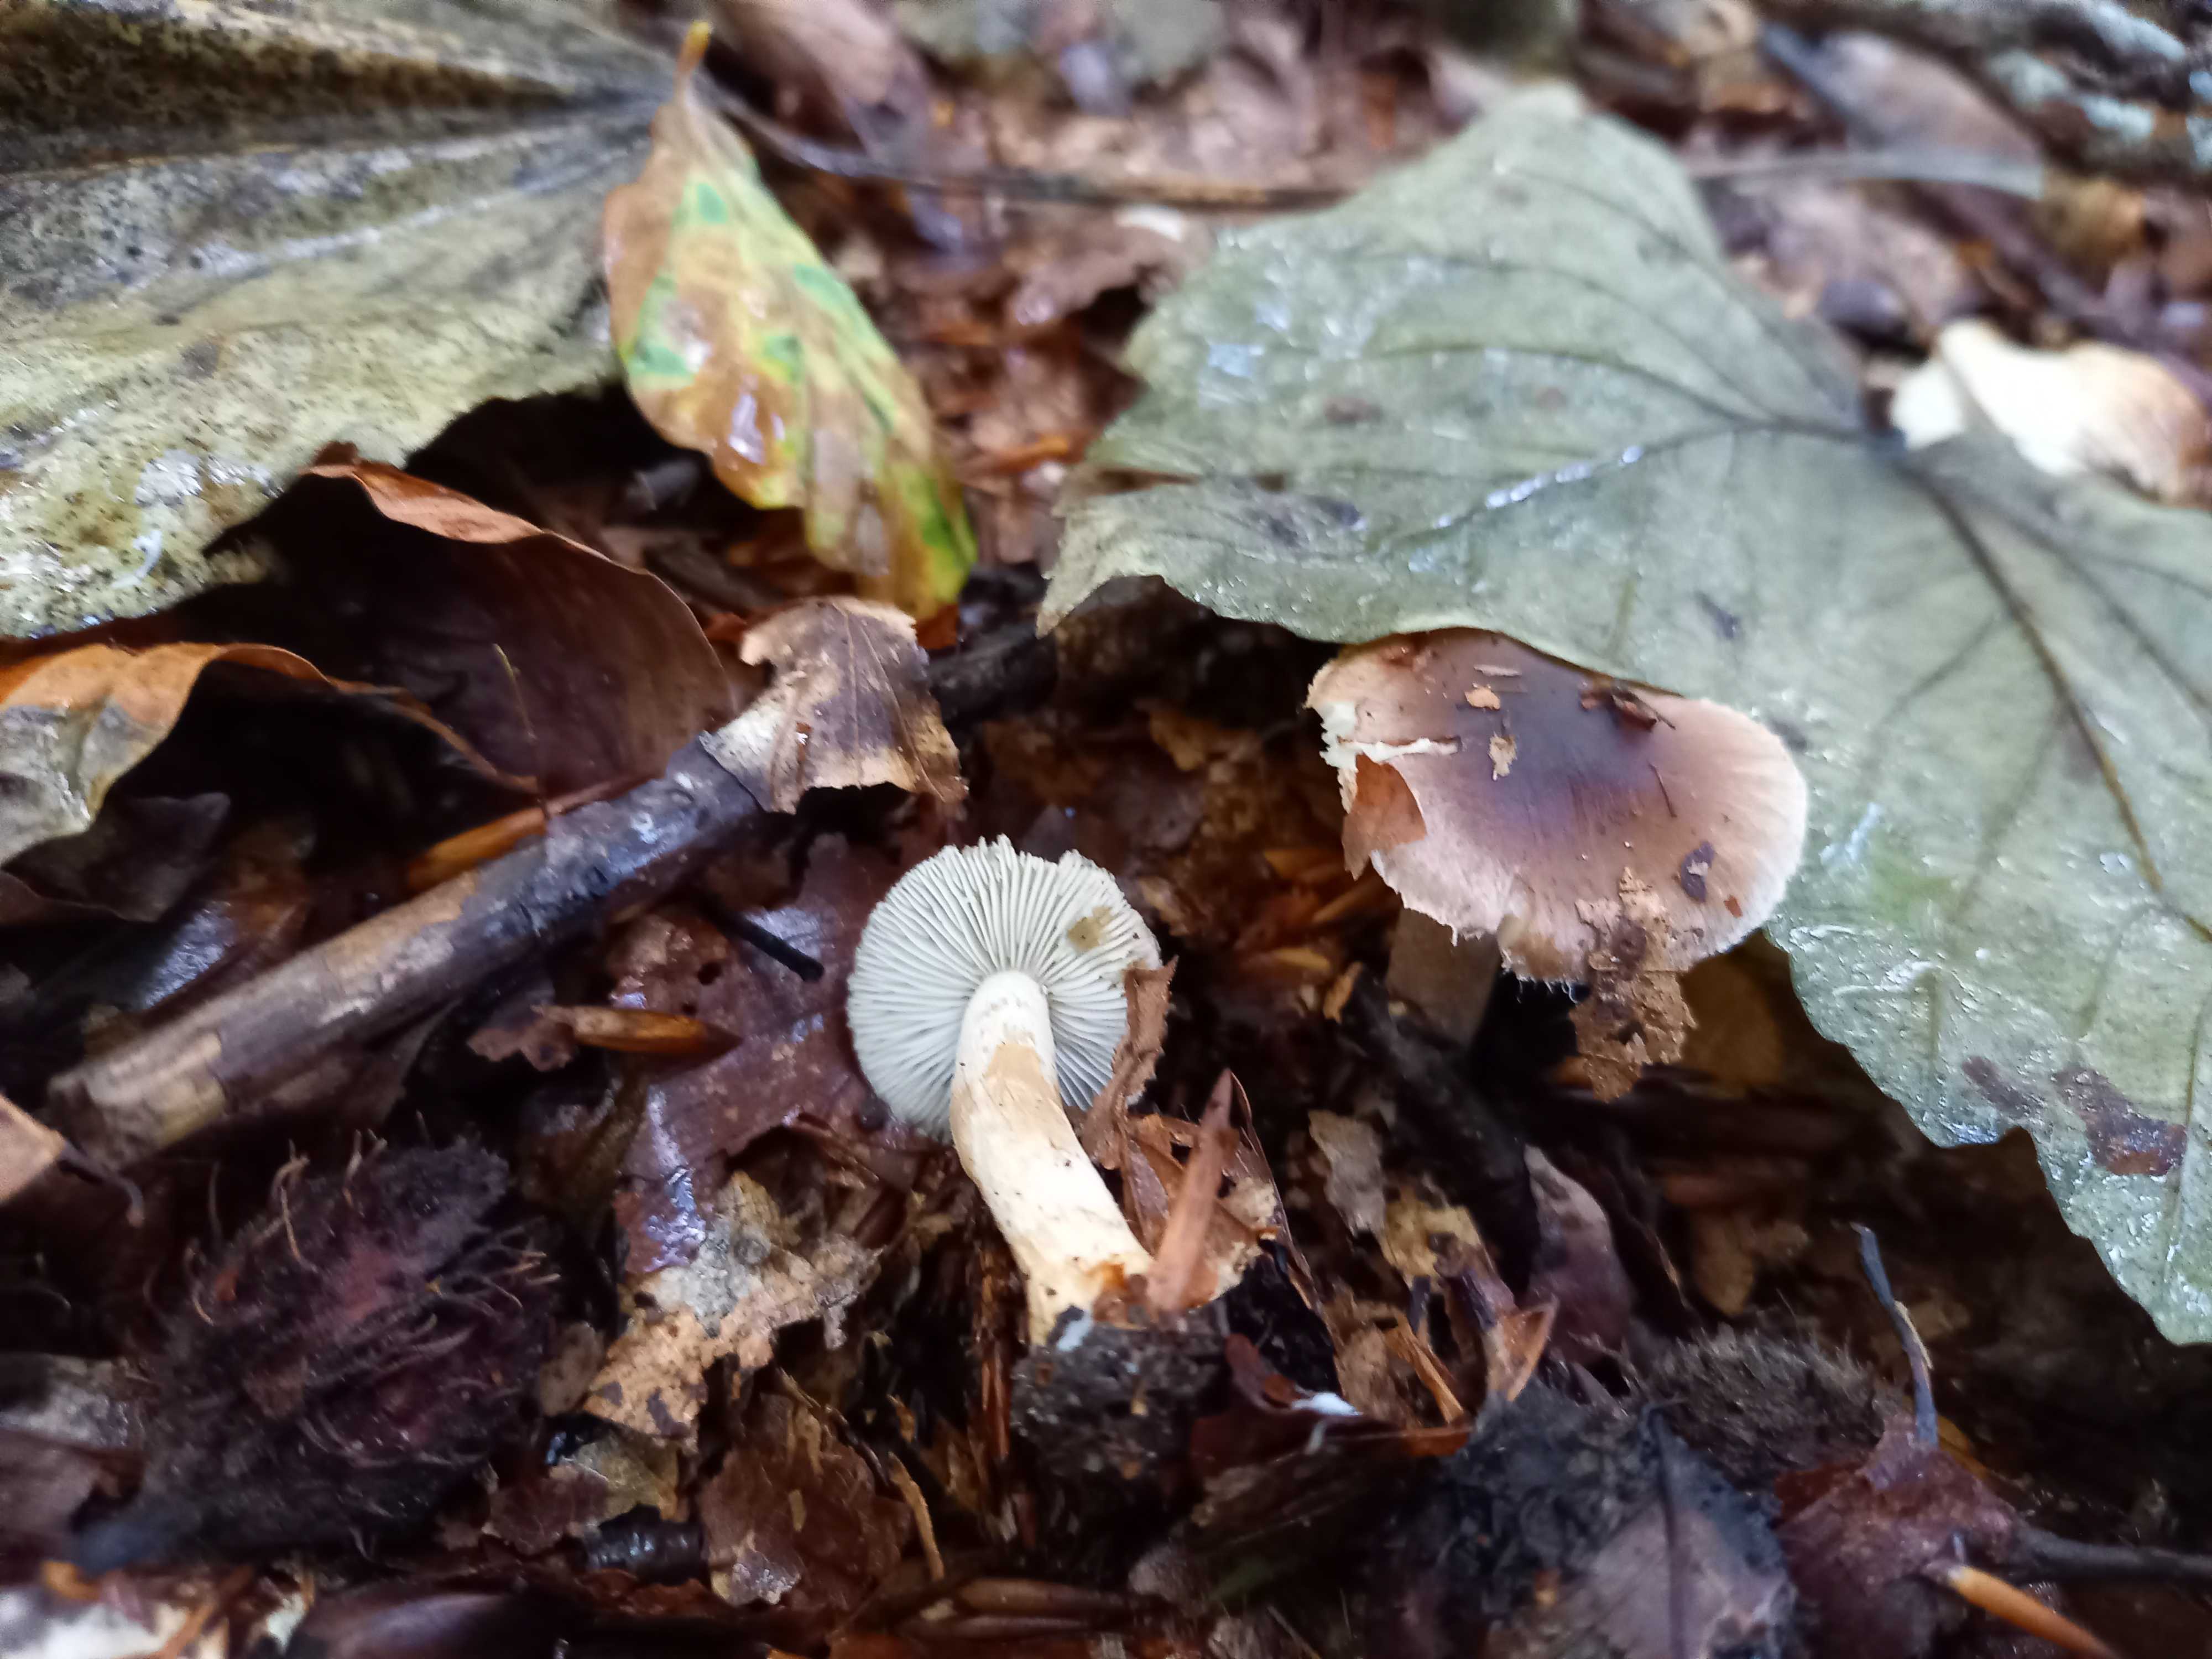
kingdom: Fungi
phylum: Basidiomycota
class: Agaricomycetes
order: Agaricales
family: Inocybaceae
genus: Inocybe
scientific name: Inocybe
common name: trævlhat
